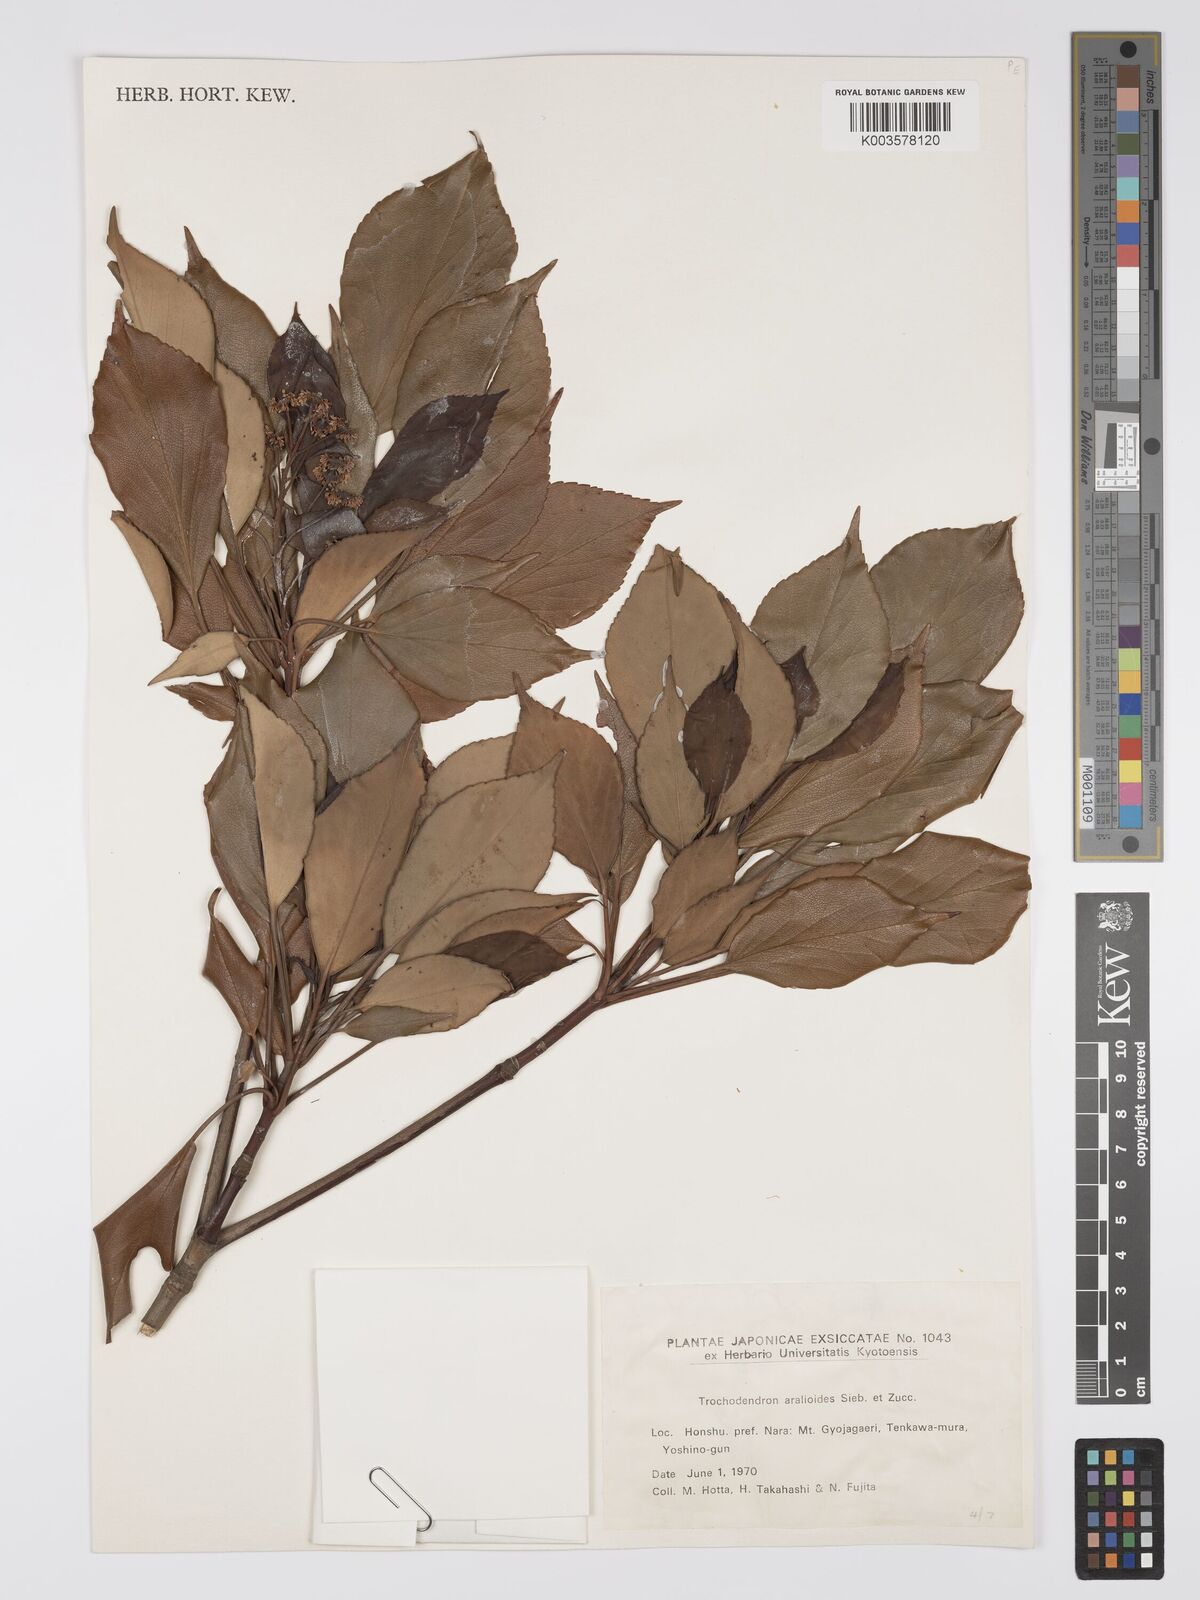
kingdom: Plantae
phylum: Tracheophyta
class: Magnoliopsida
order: Trochodendrales
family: Trochodendraceae
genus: Trochodendron
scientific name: Trochodendron aralioides
